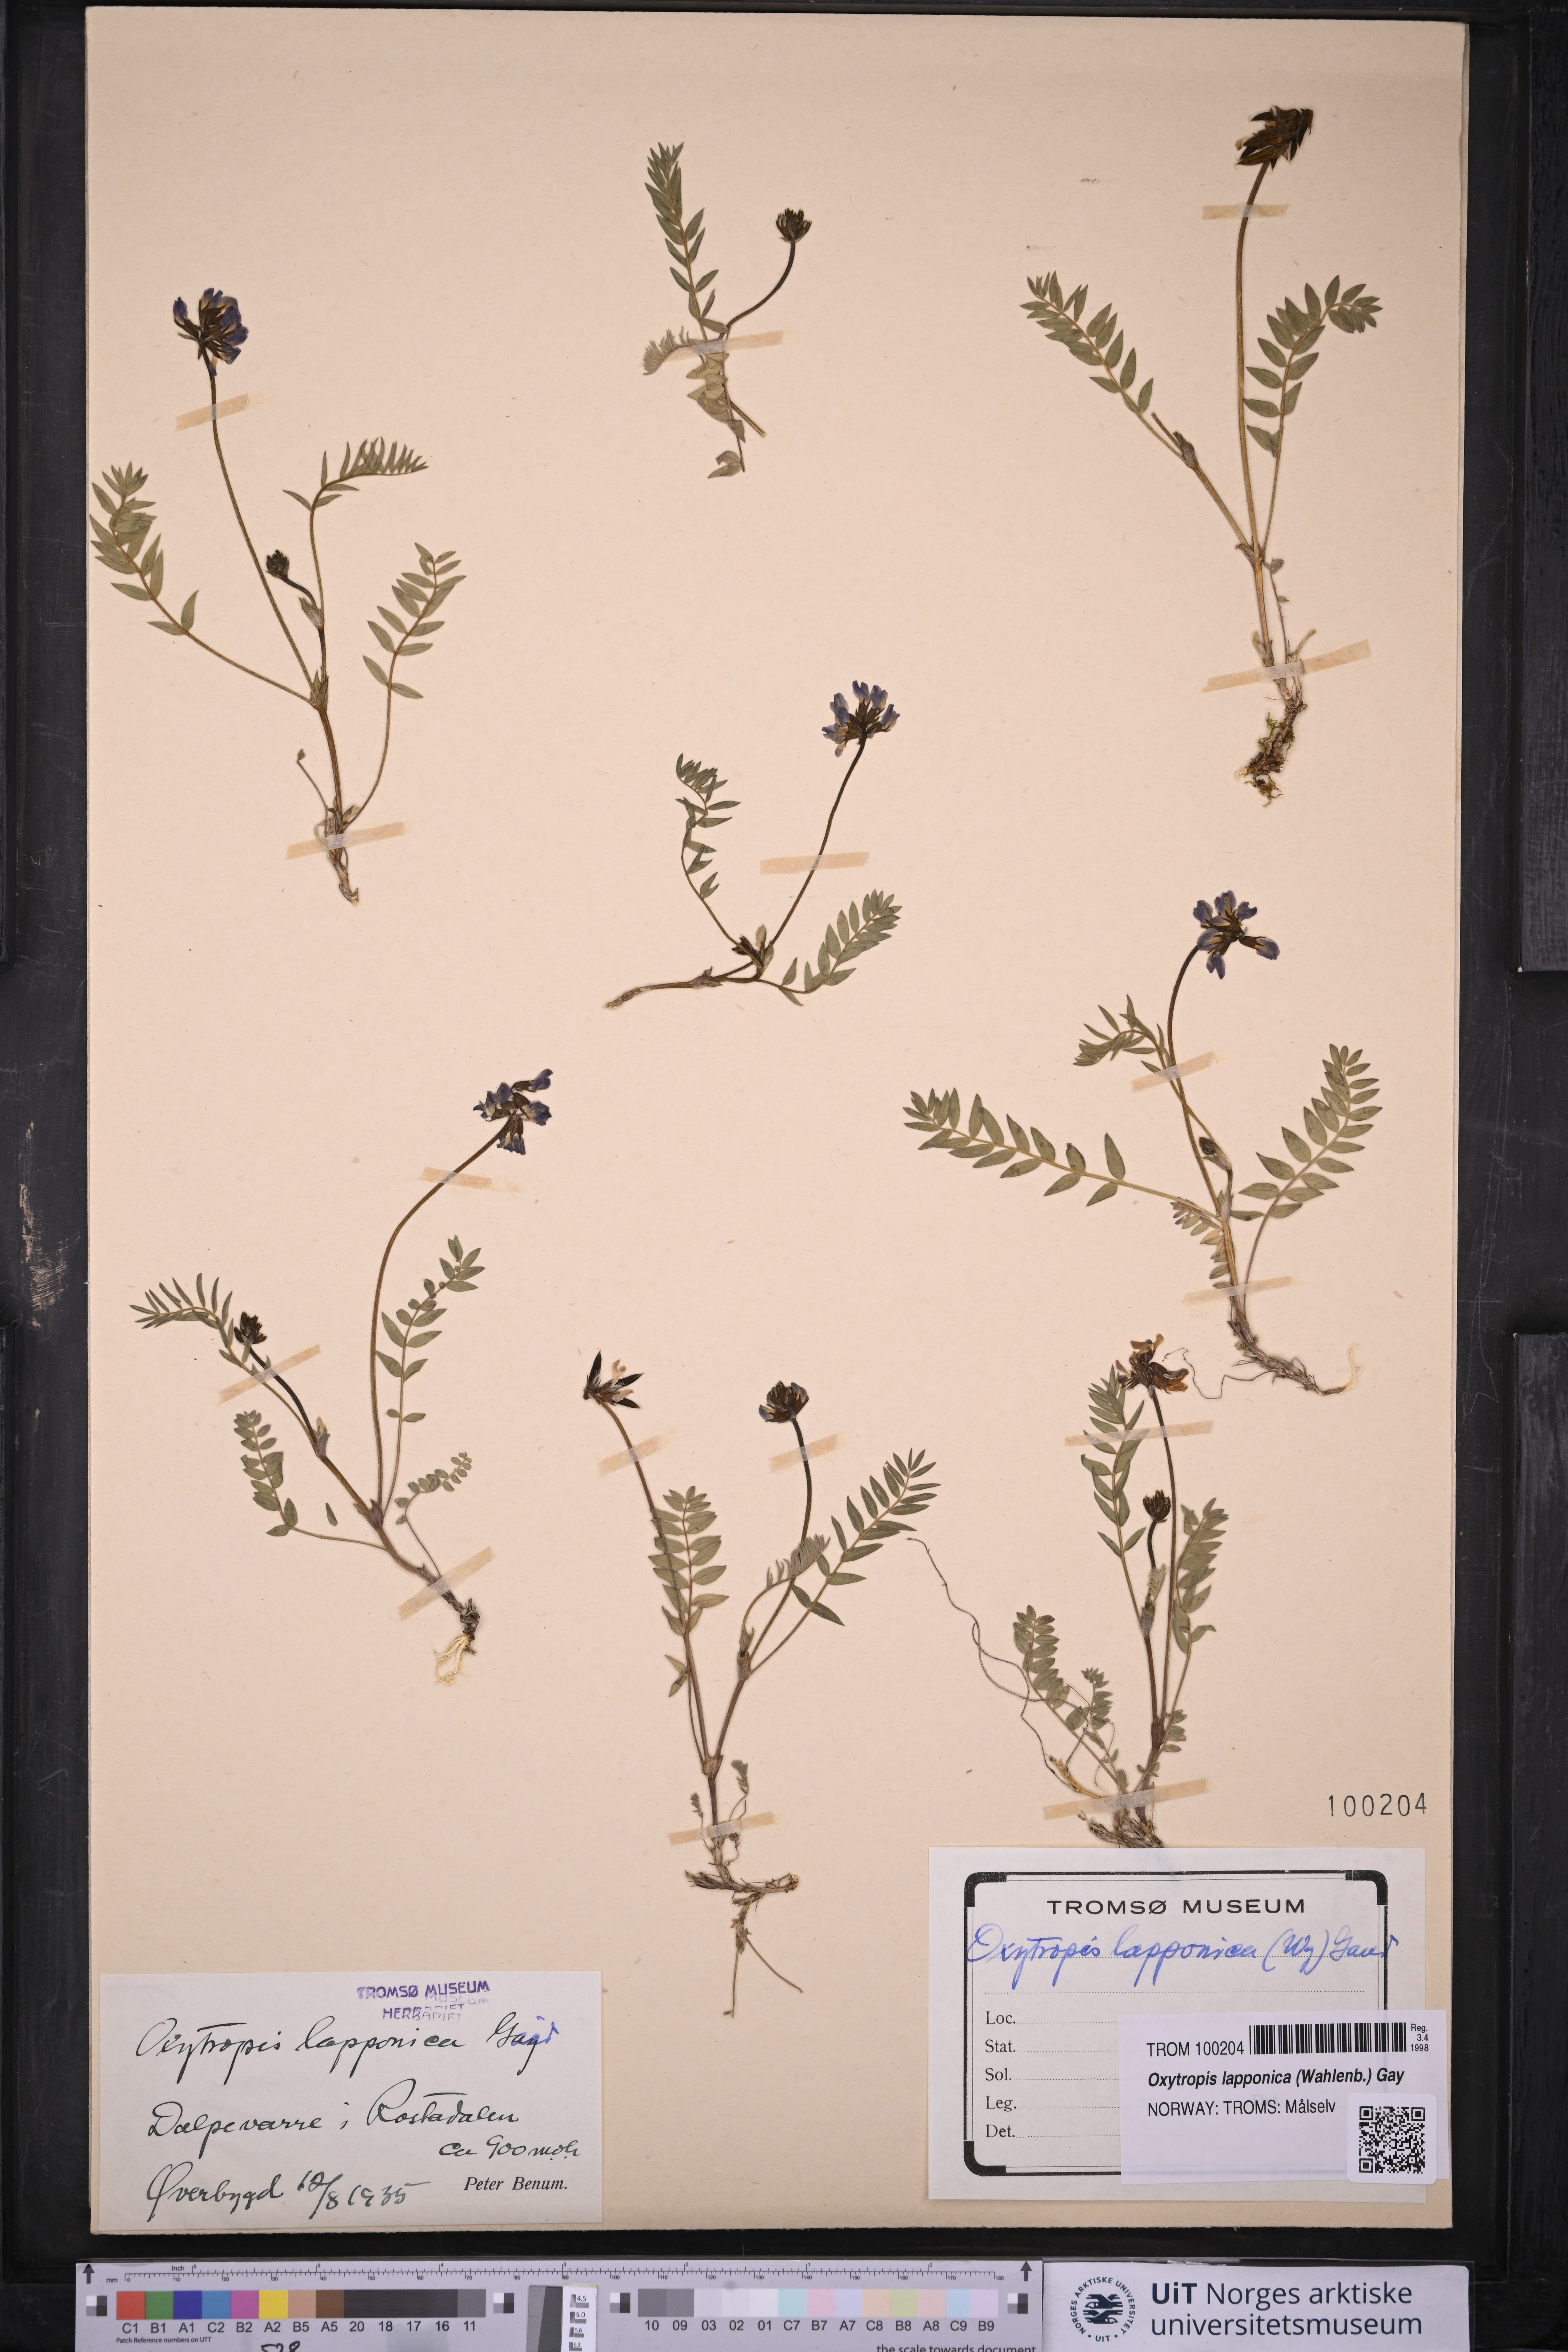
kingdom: Plantae
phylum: Tracheophyta
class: Magnoliopsida
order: Fabales
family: Fabaceae
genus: Oxytropis
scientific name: Oxytropis lapponica
